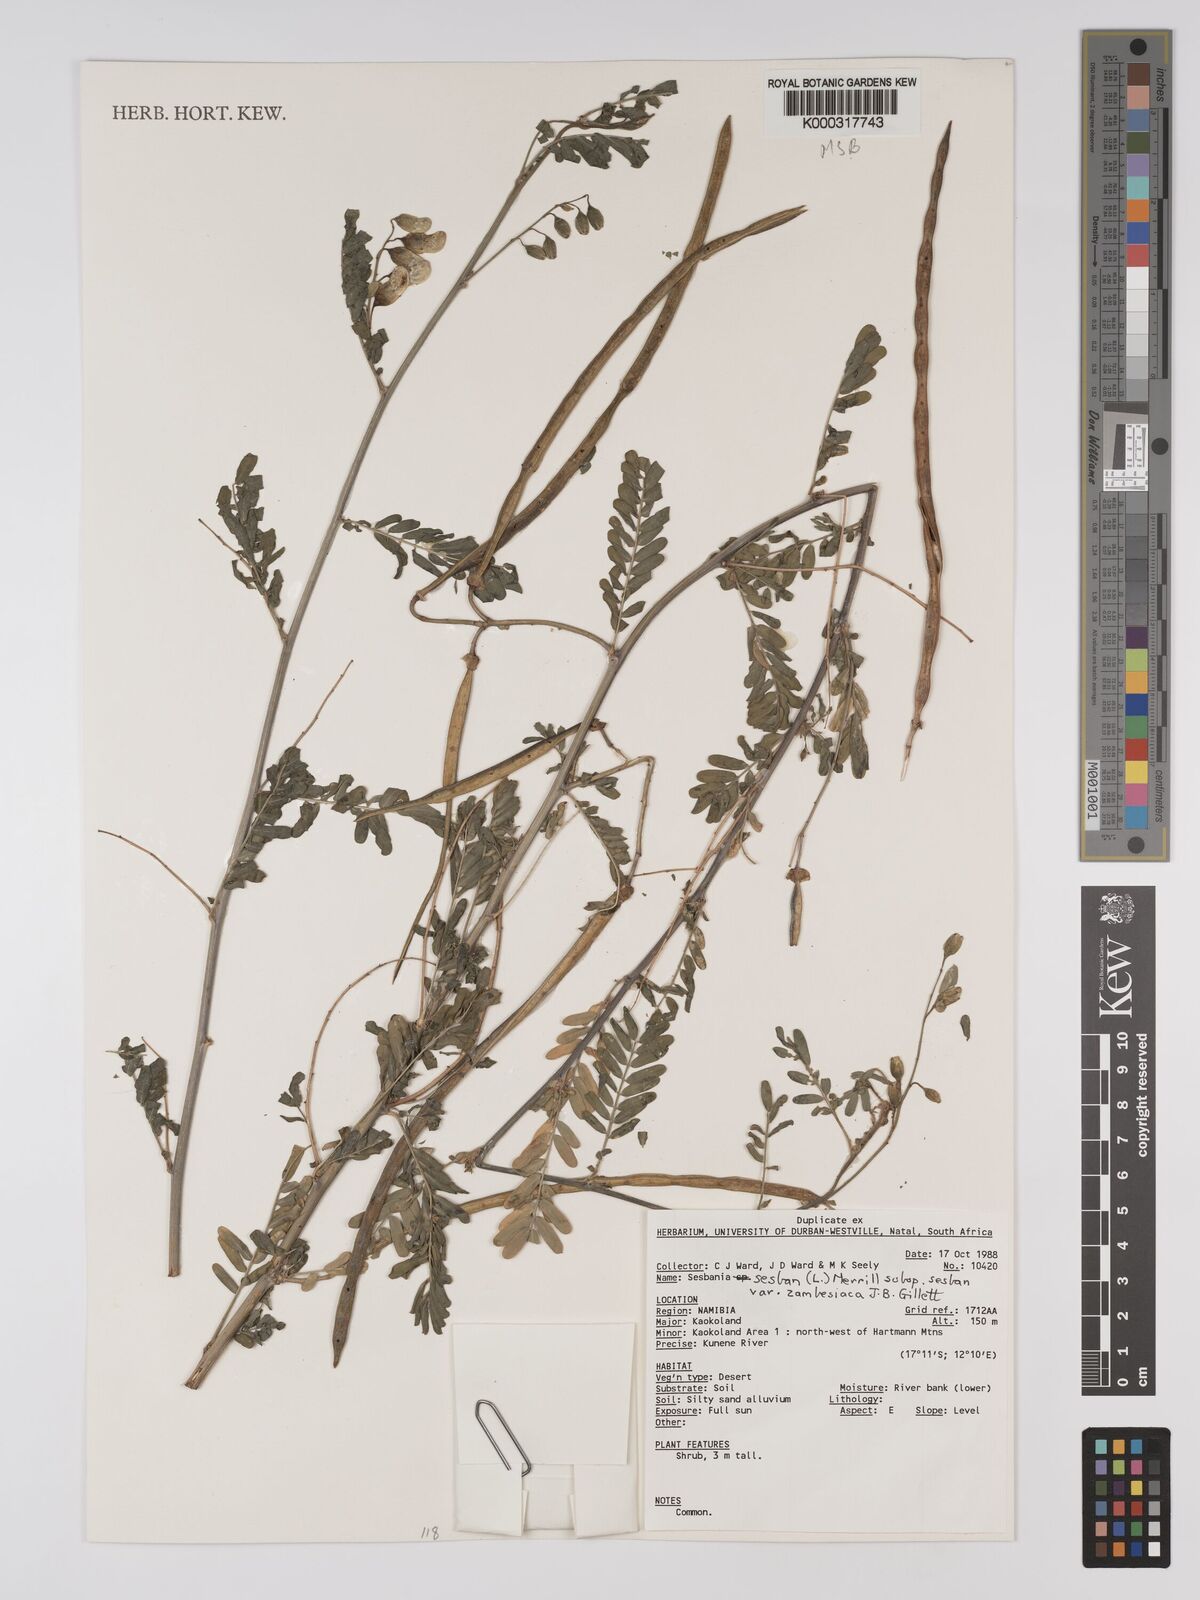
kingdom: Plantae
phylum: Tracheophyta
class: Magnoliopsida
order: Fabales
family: Fabaceae
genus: Sesbania
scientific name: Sesbania sesban
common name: Egyptian sesban
